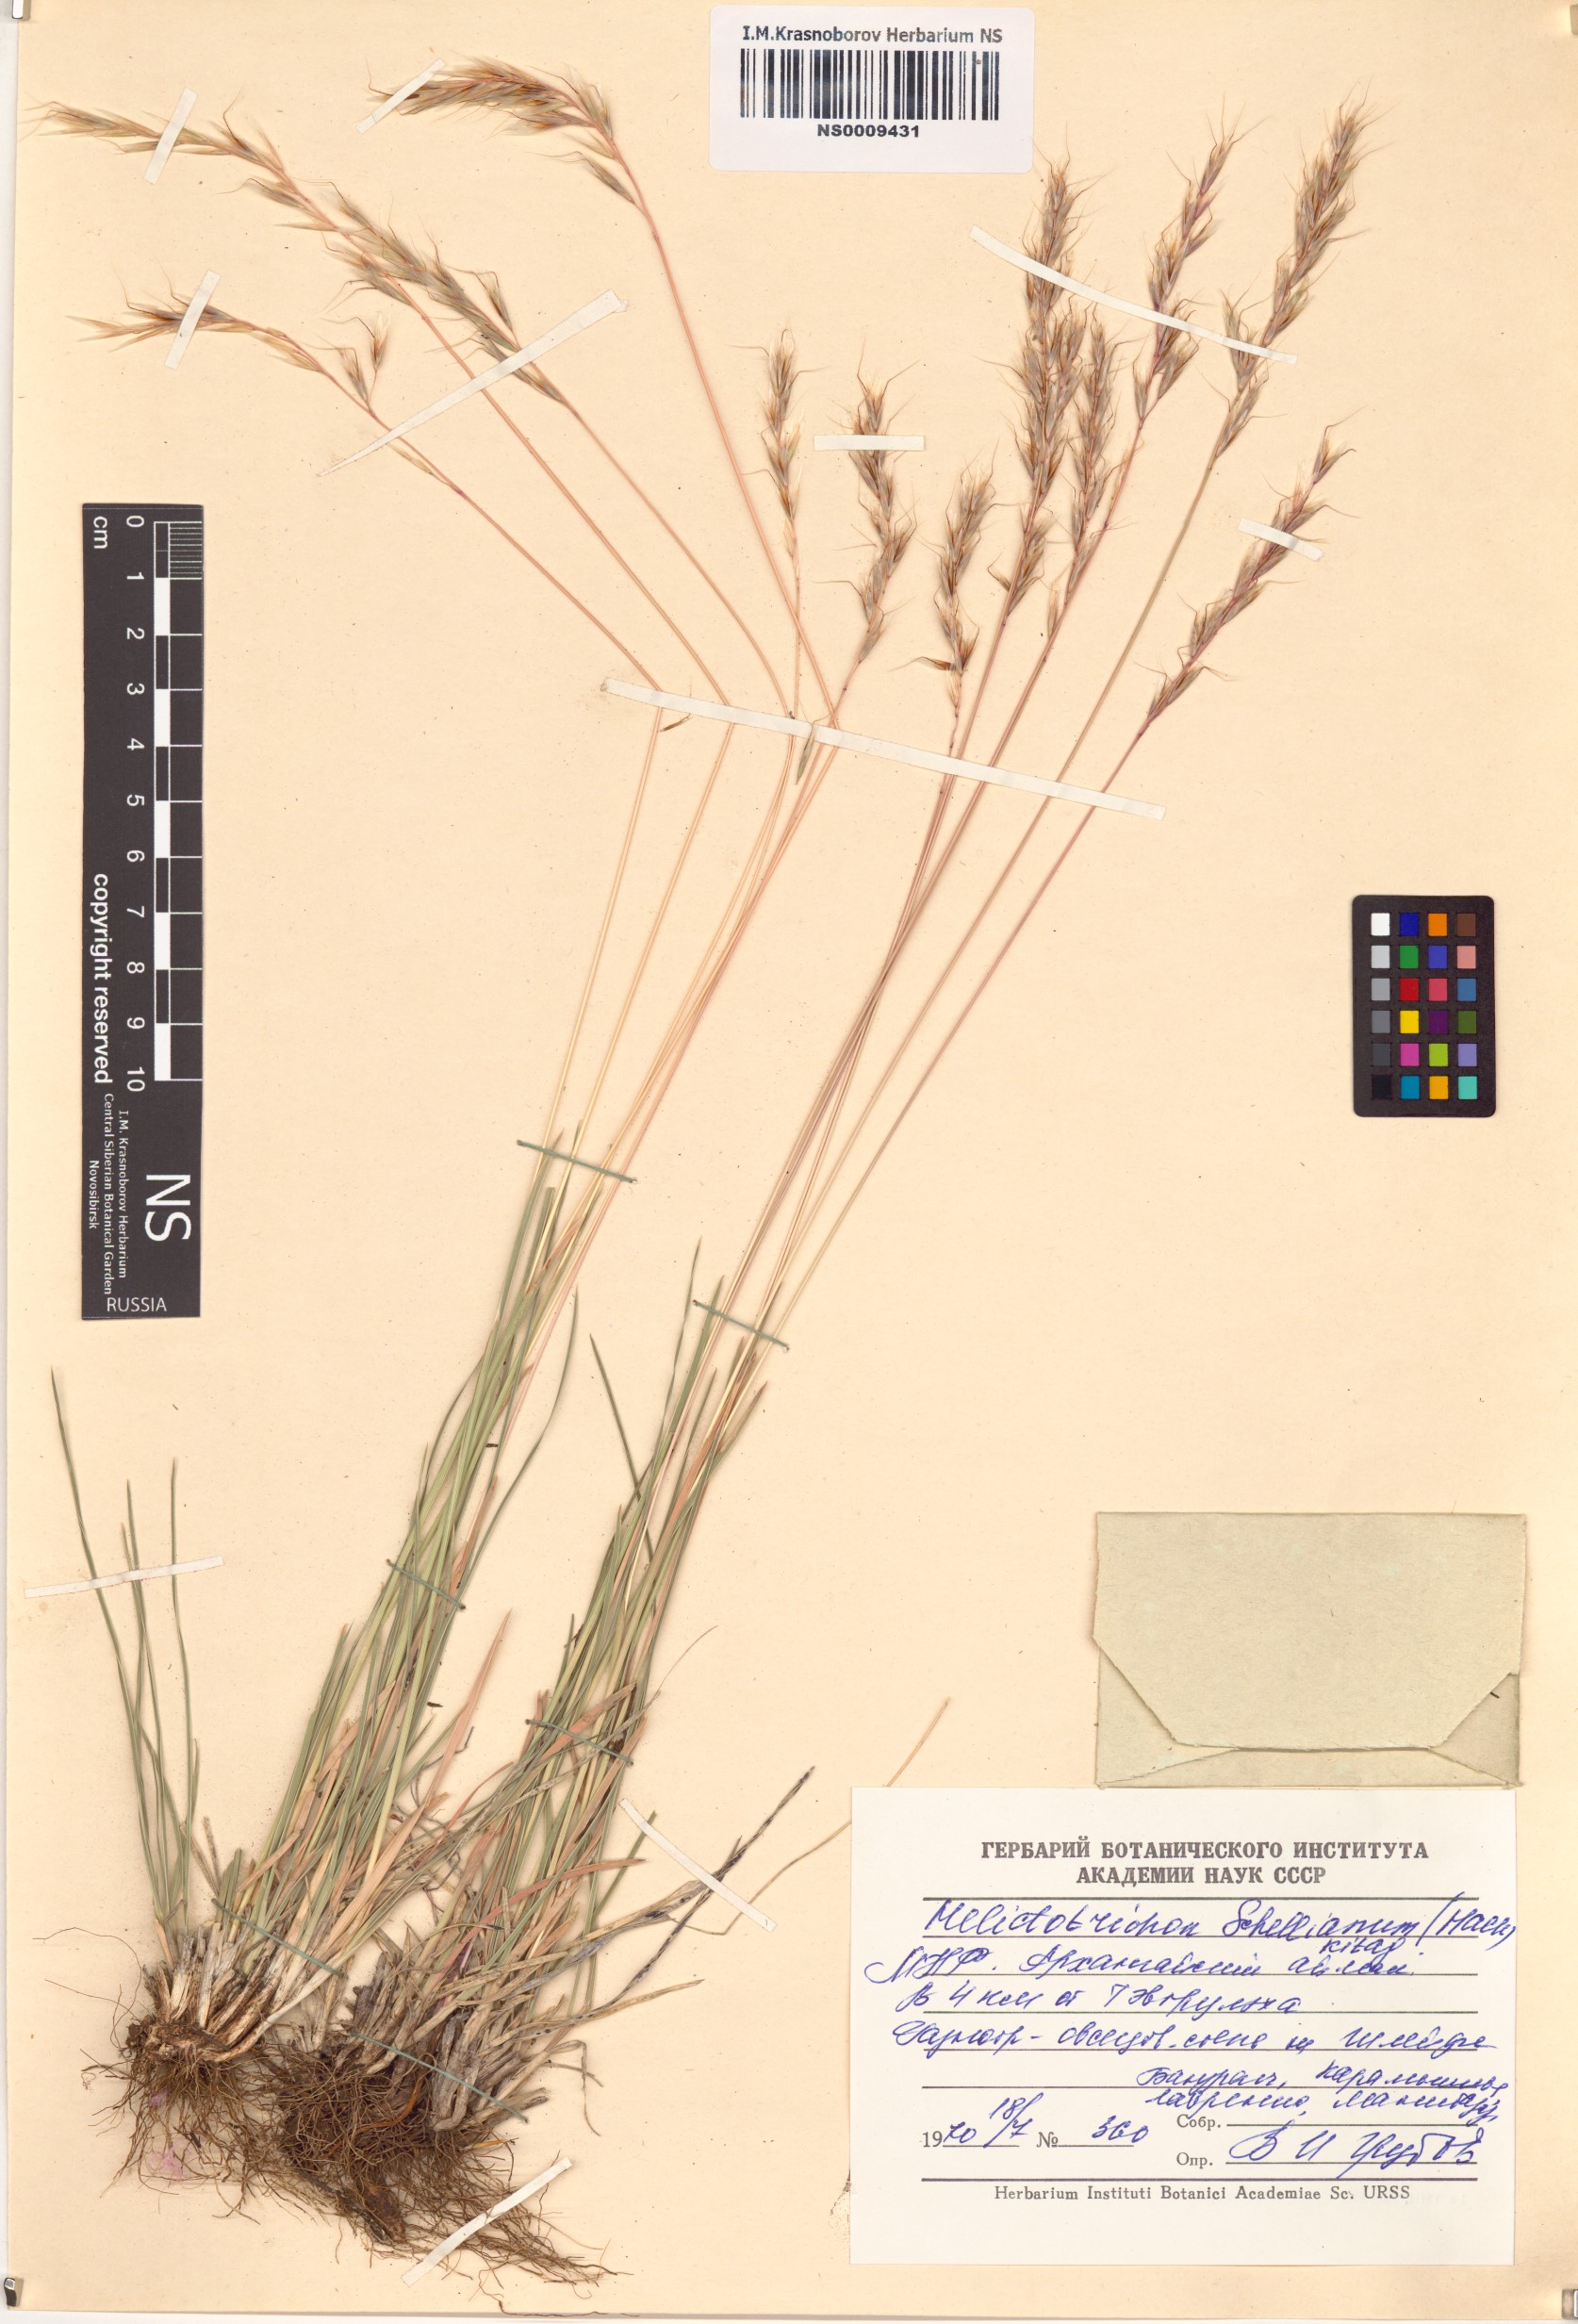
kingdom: Plantae
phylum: Tracheophyta
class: Liliopsida
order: Poales
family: Poaceae
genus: Helictochloa
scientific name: Helictochloa hookeri
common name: Hooker's alpine oatgrass
